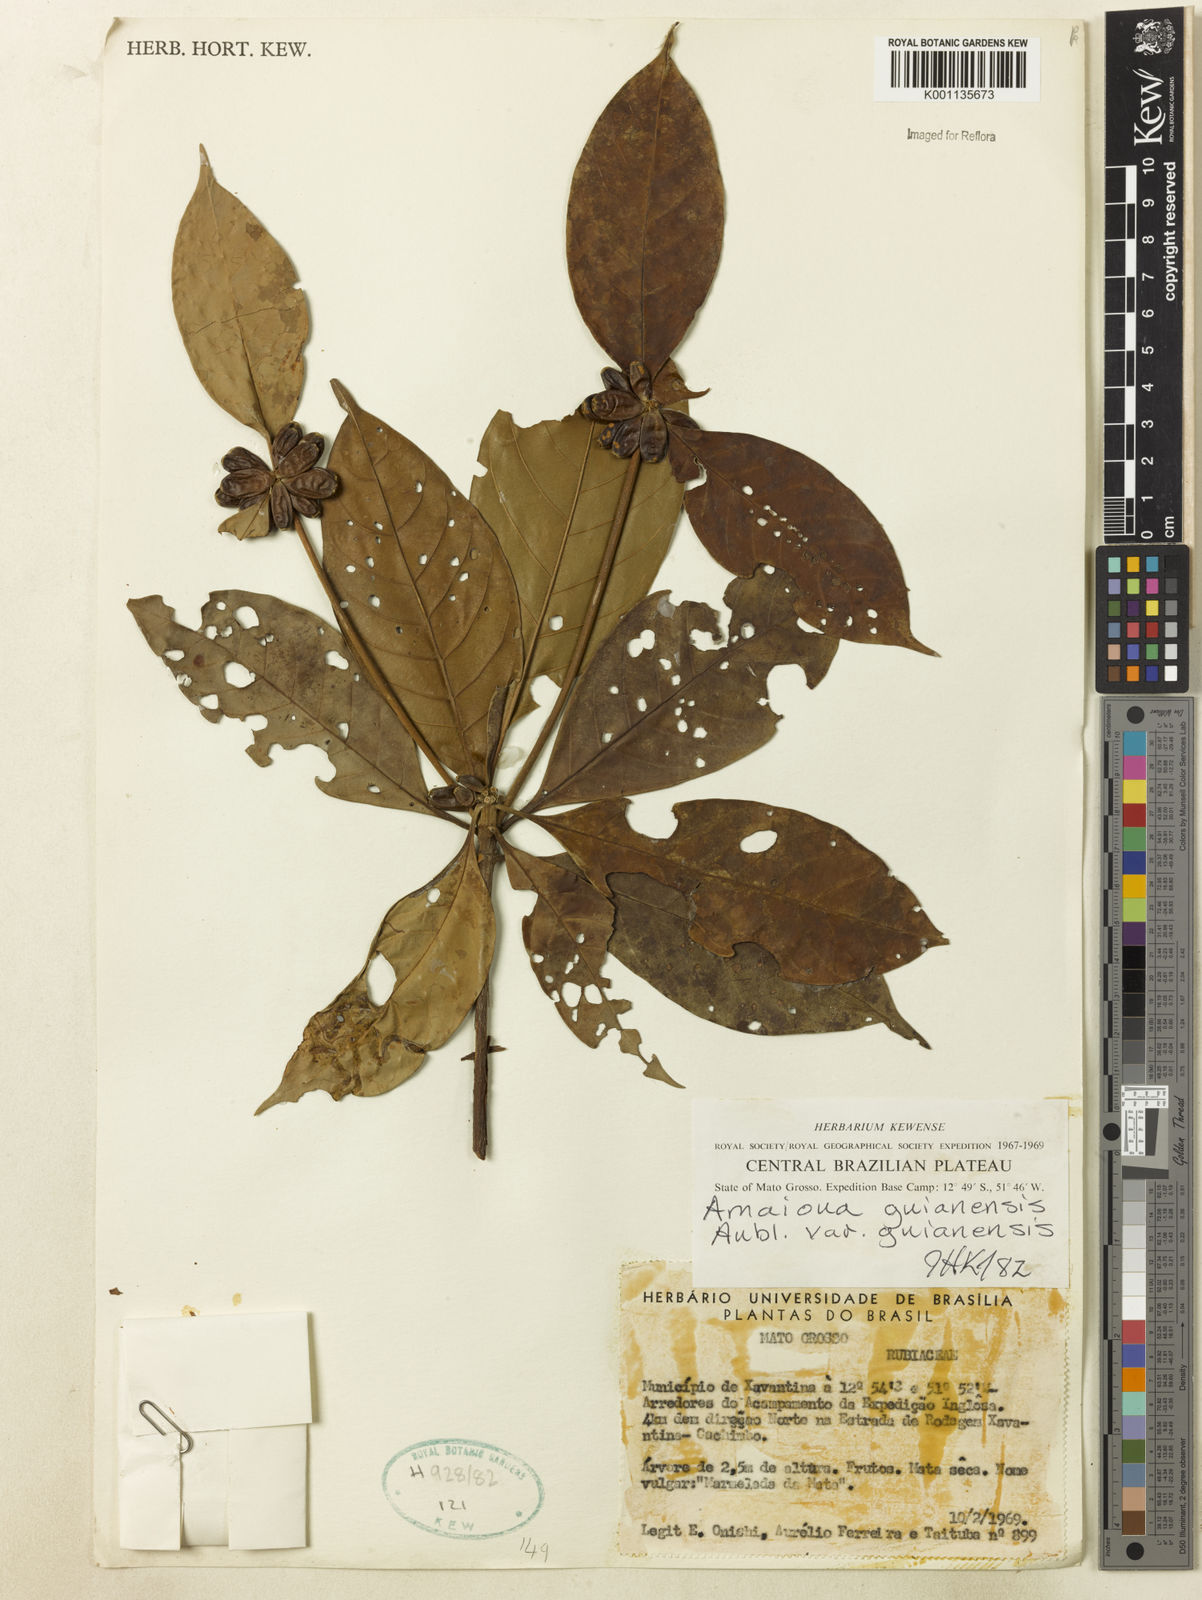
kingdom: Plantae
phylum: Tracheophyta
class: Magnoliopsida
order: Gentianales
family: Rubiaceae
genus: Amaioua
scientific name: Amaioua guianensis
